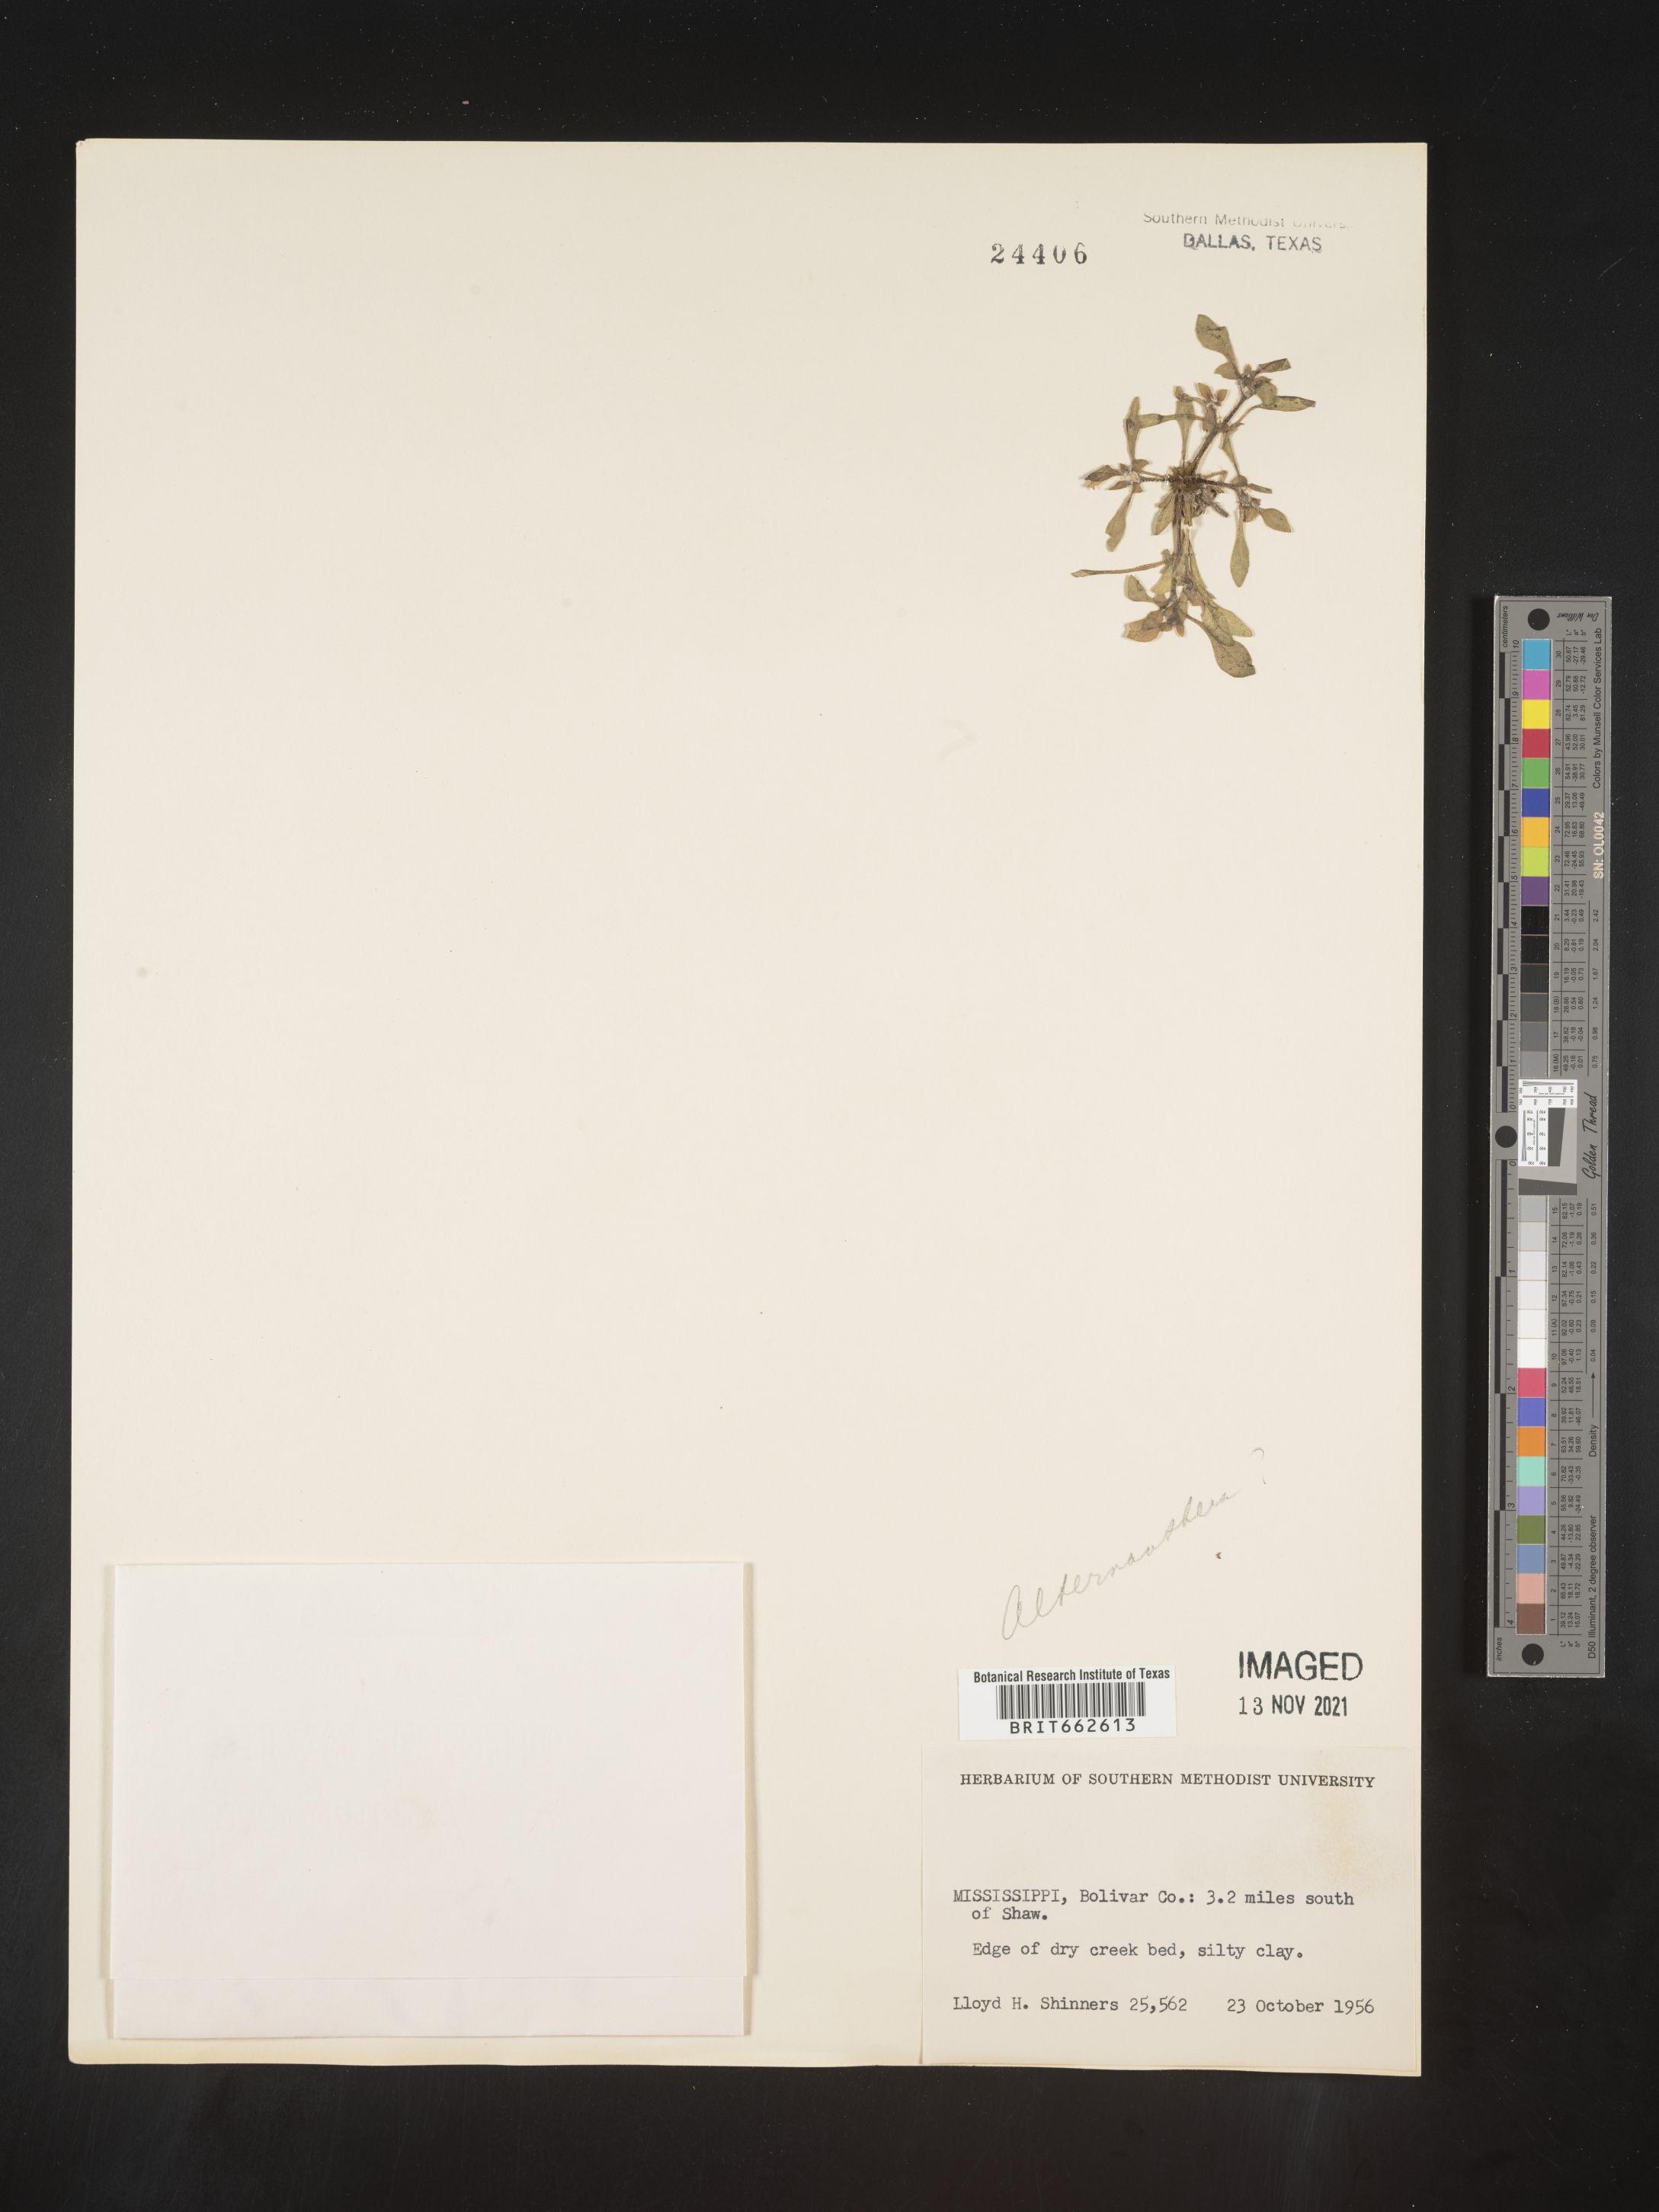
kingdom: Plantae
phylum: Tracheophyta
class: Magnoliopsida
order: Caryophyllales
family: Amaranthaceae
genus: Alternanthera
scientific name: Alternanthera
